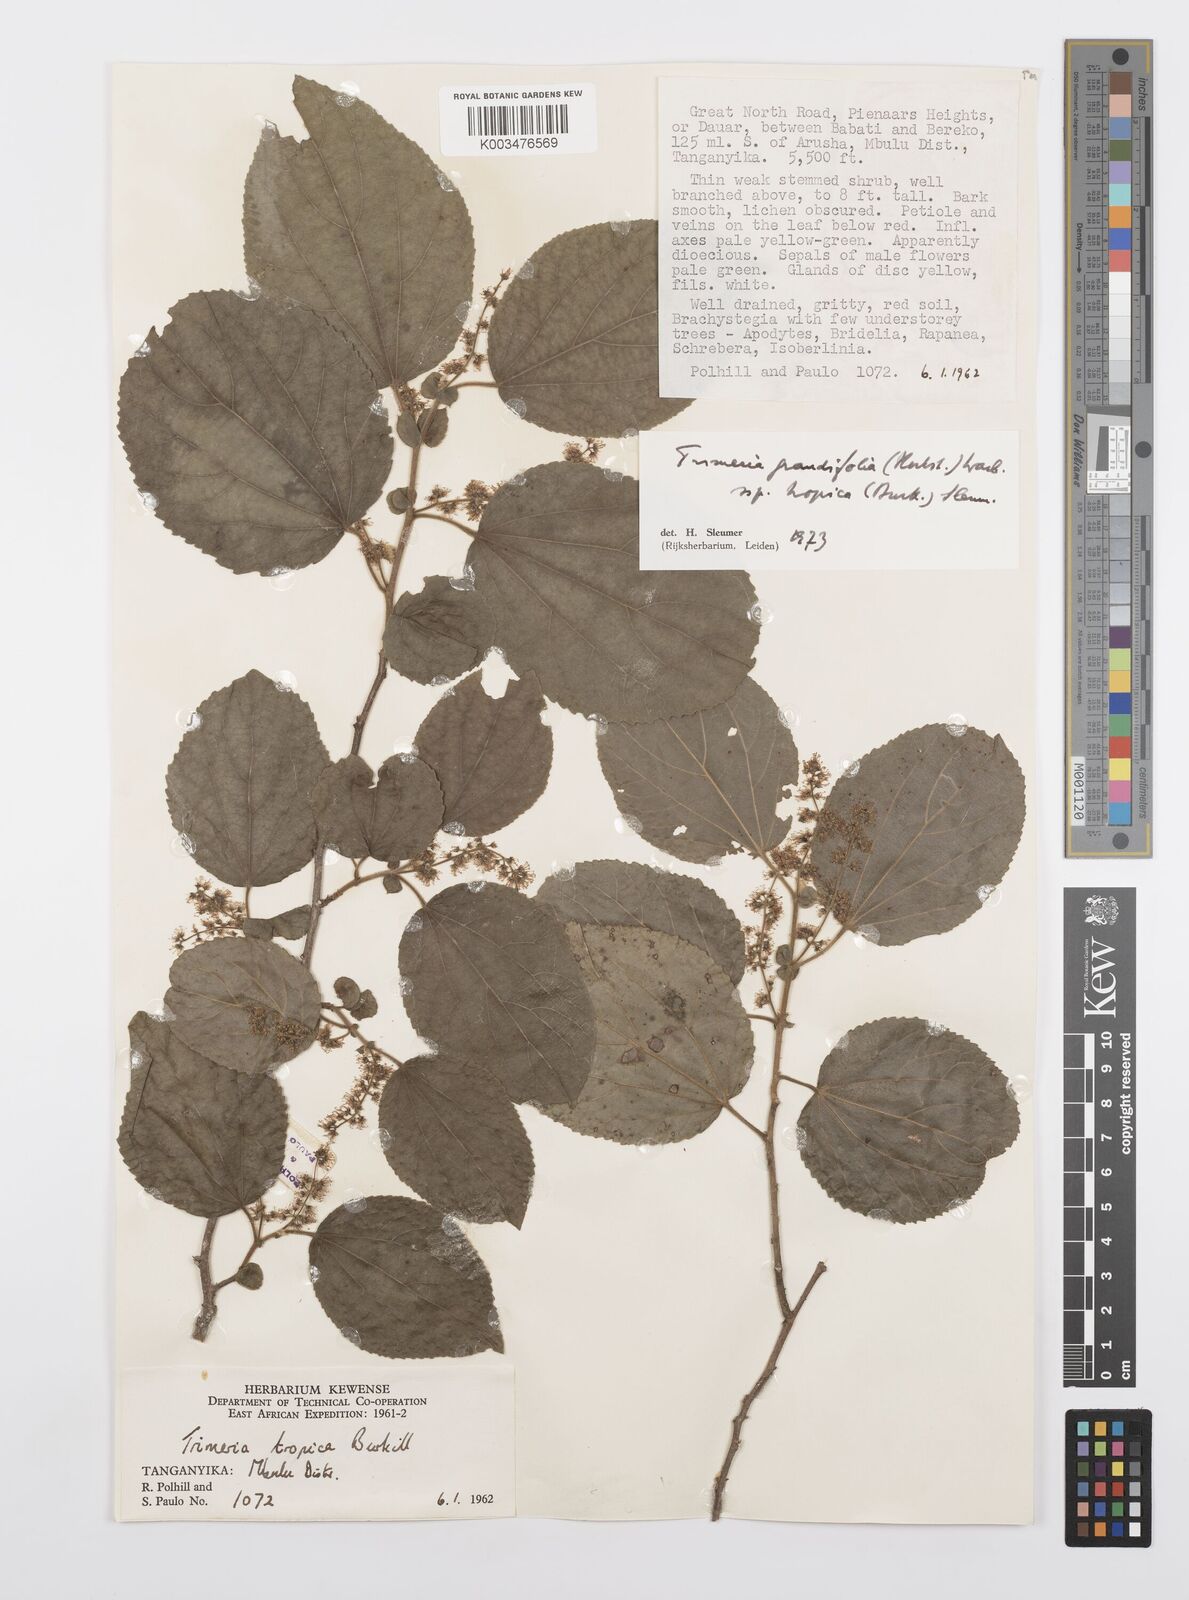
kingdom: Plantae
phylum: Tracheophyta
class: Magnoliopsida
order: Malpighiales
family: Salicaceae
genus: Trimeria
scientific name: Trimeria grandifolia
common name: Wild mulberry
